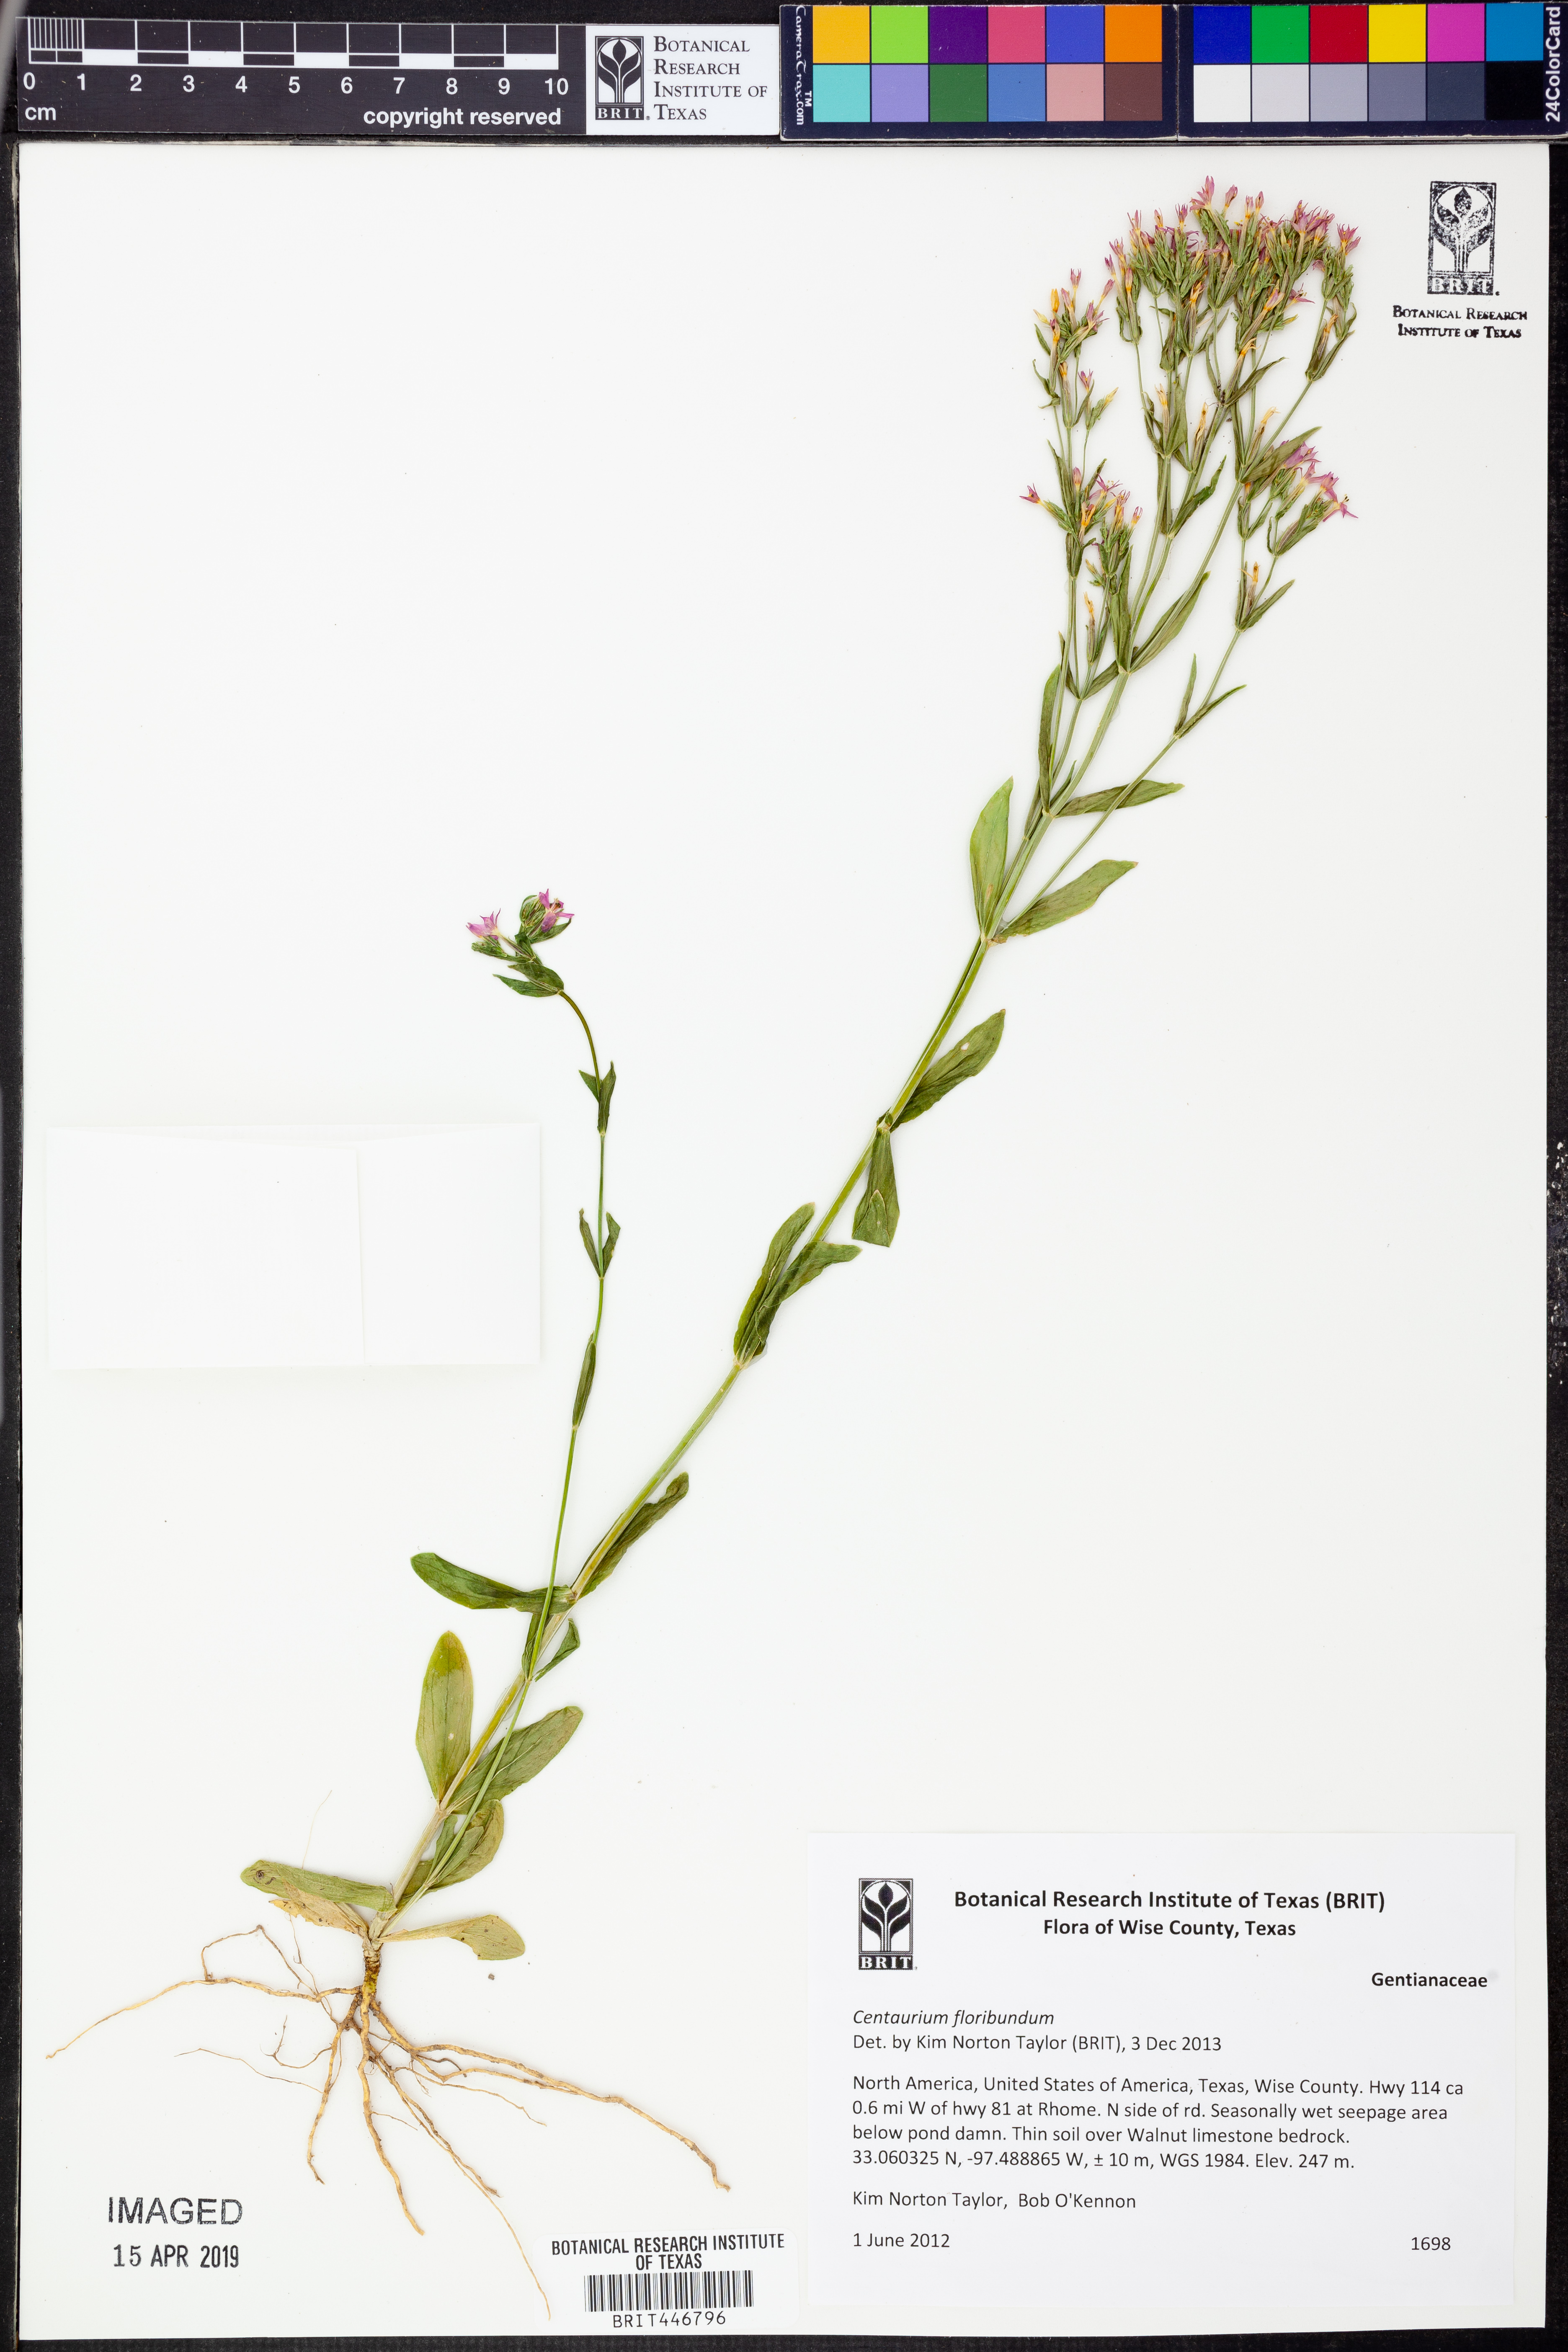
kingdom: Plantae
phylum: Tracheophyta
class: Magnoliopsida
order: Gentianales
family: Gentianaceae
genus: Zeltnera
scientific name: Zeltnera muhlenbergii
